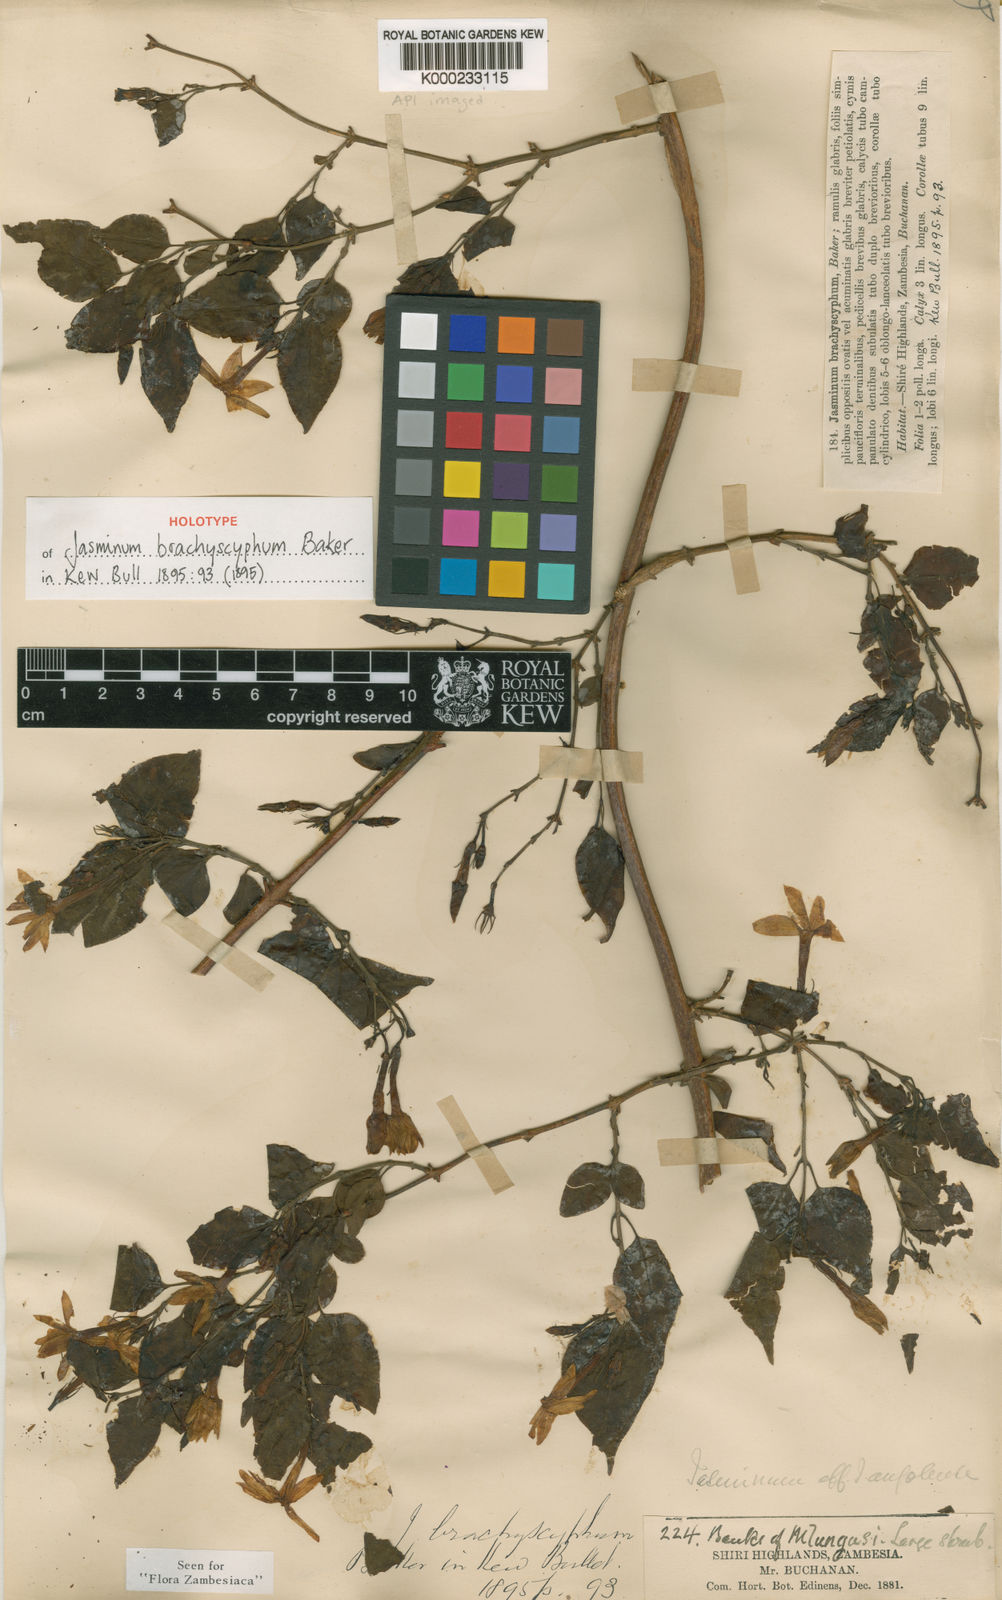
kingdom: Plantae
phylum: Tracheophyta
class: Magnoliopsida
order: Lamiales
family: Oleaceae
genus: Jasminum
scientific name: Jasminum brachyscyphum
